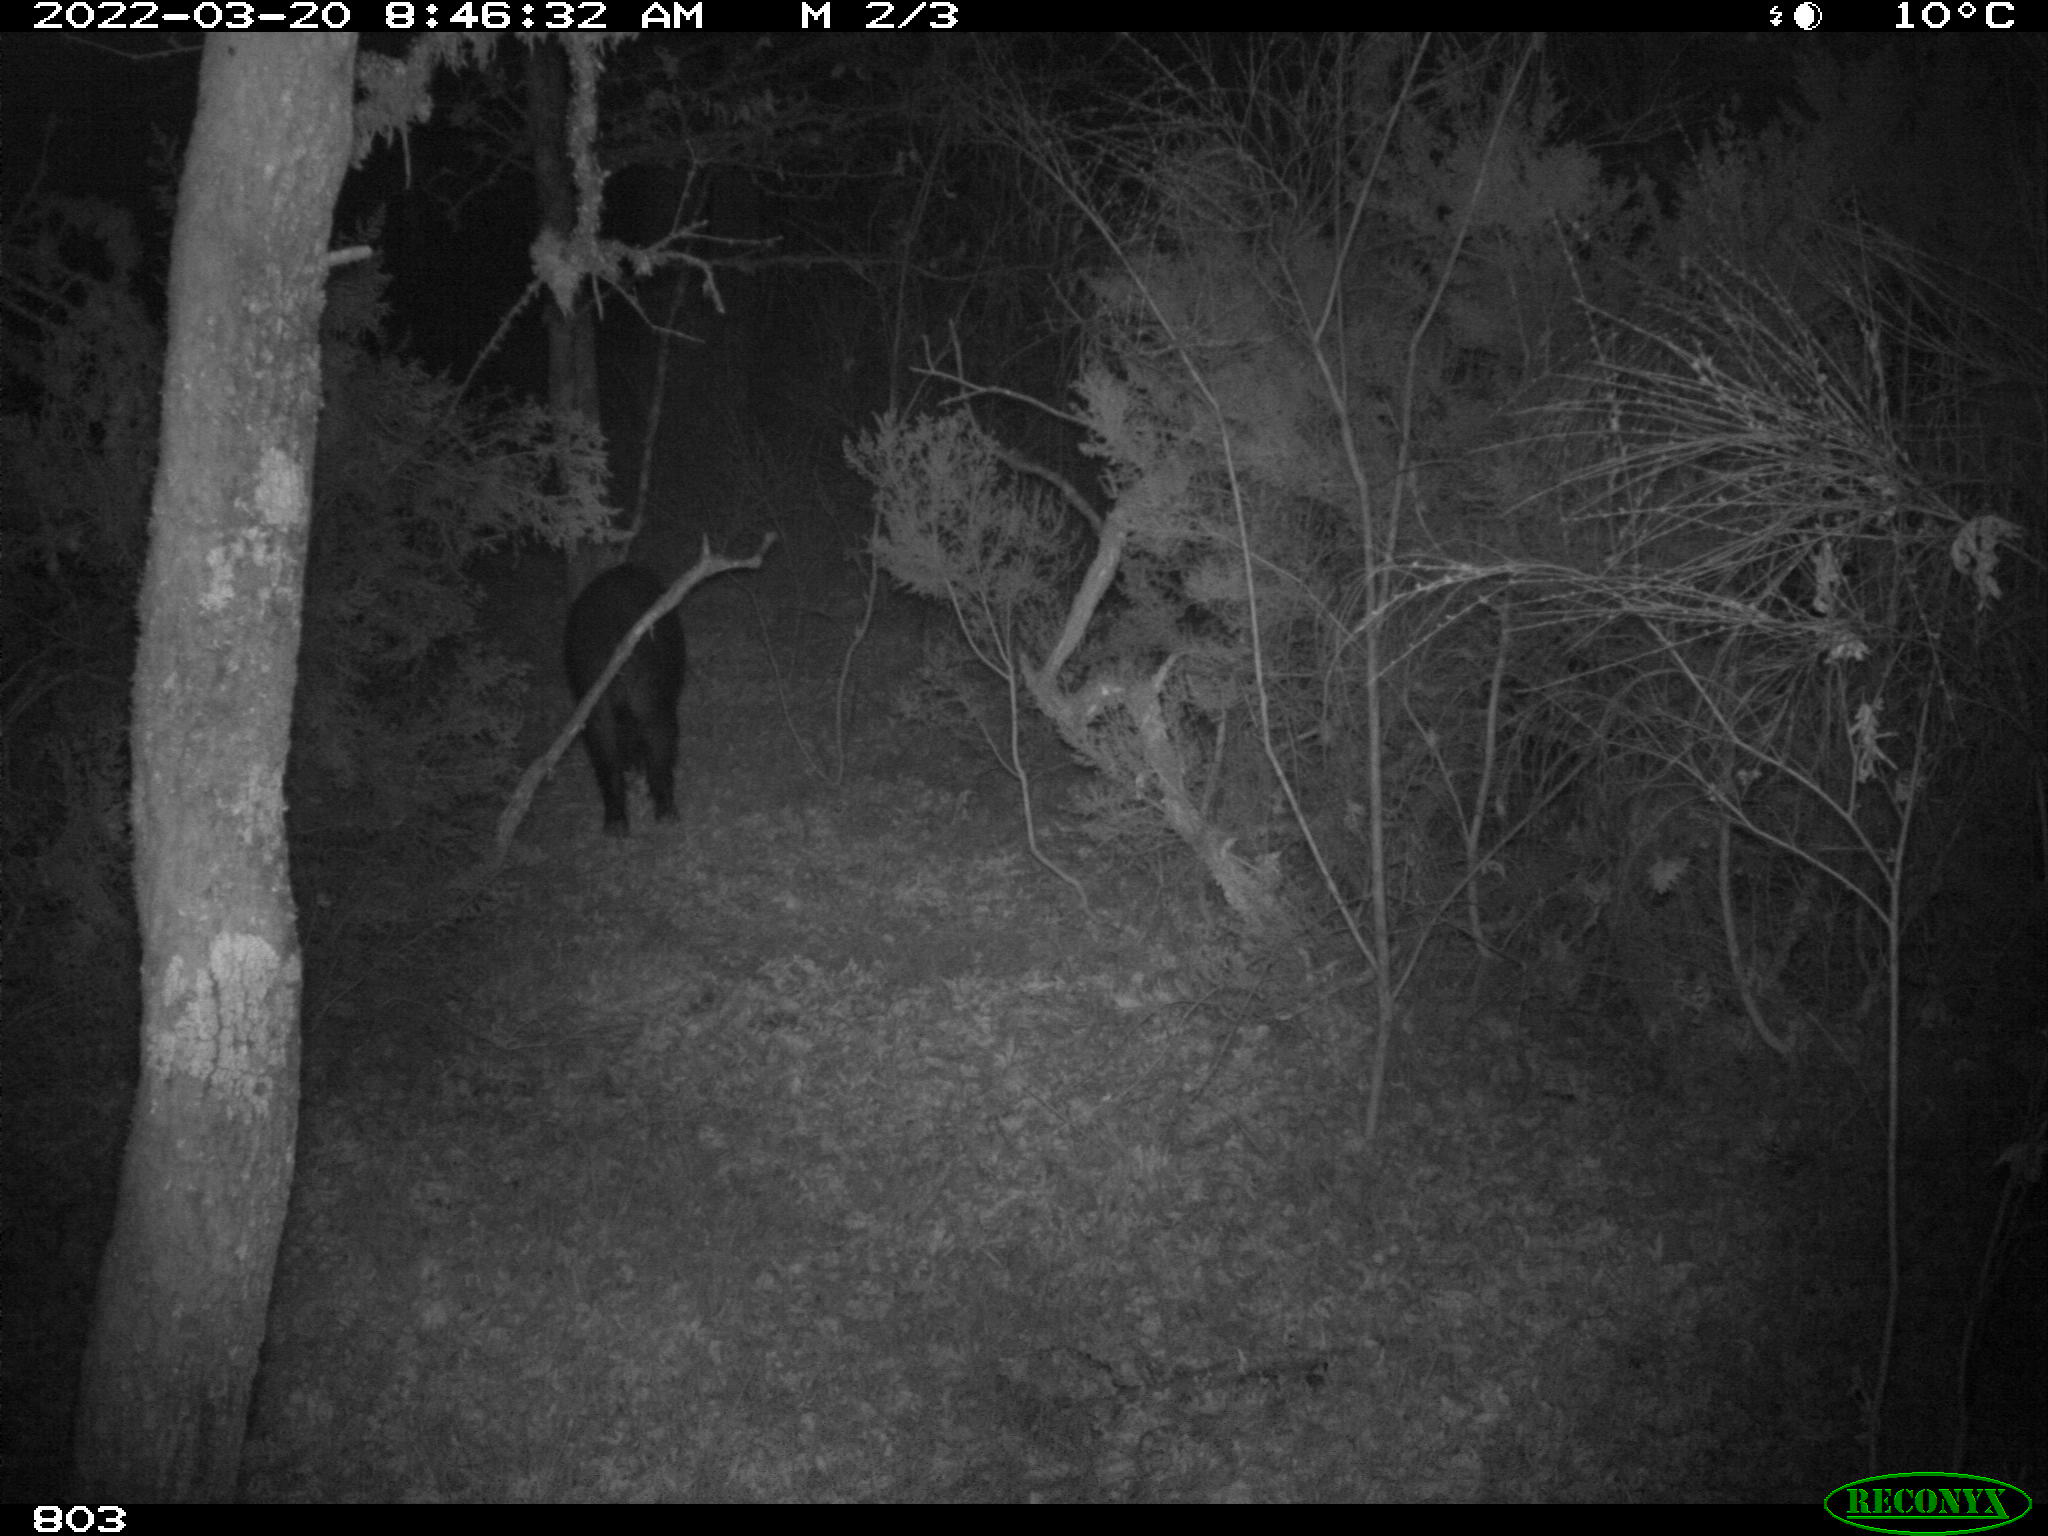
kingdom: Animalia
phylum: Chordata
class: Mammalia
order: Artiodactyla
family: Suidae
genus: Sus
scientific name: Sus scrofa
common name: Wild boar
